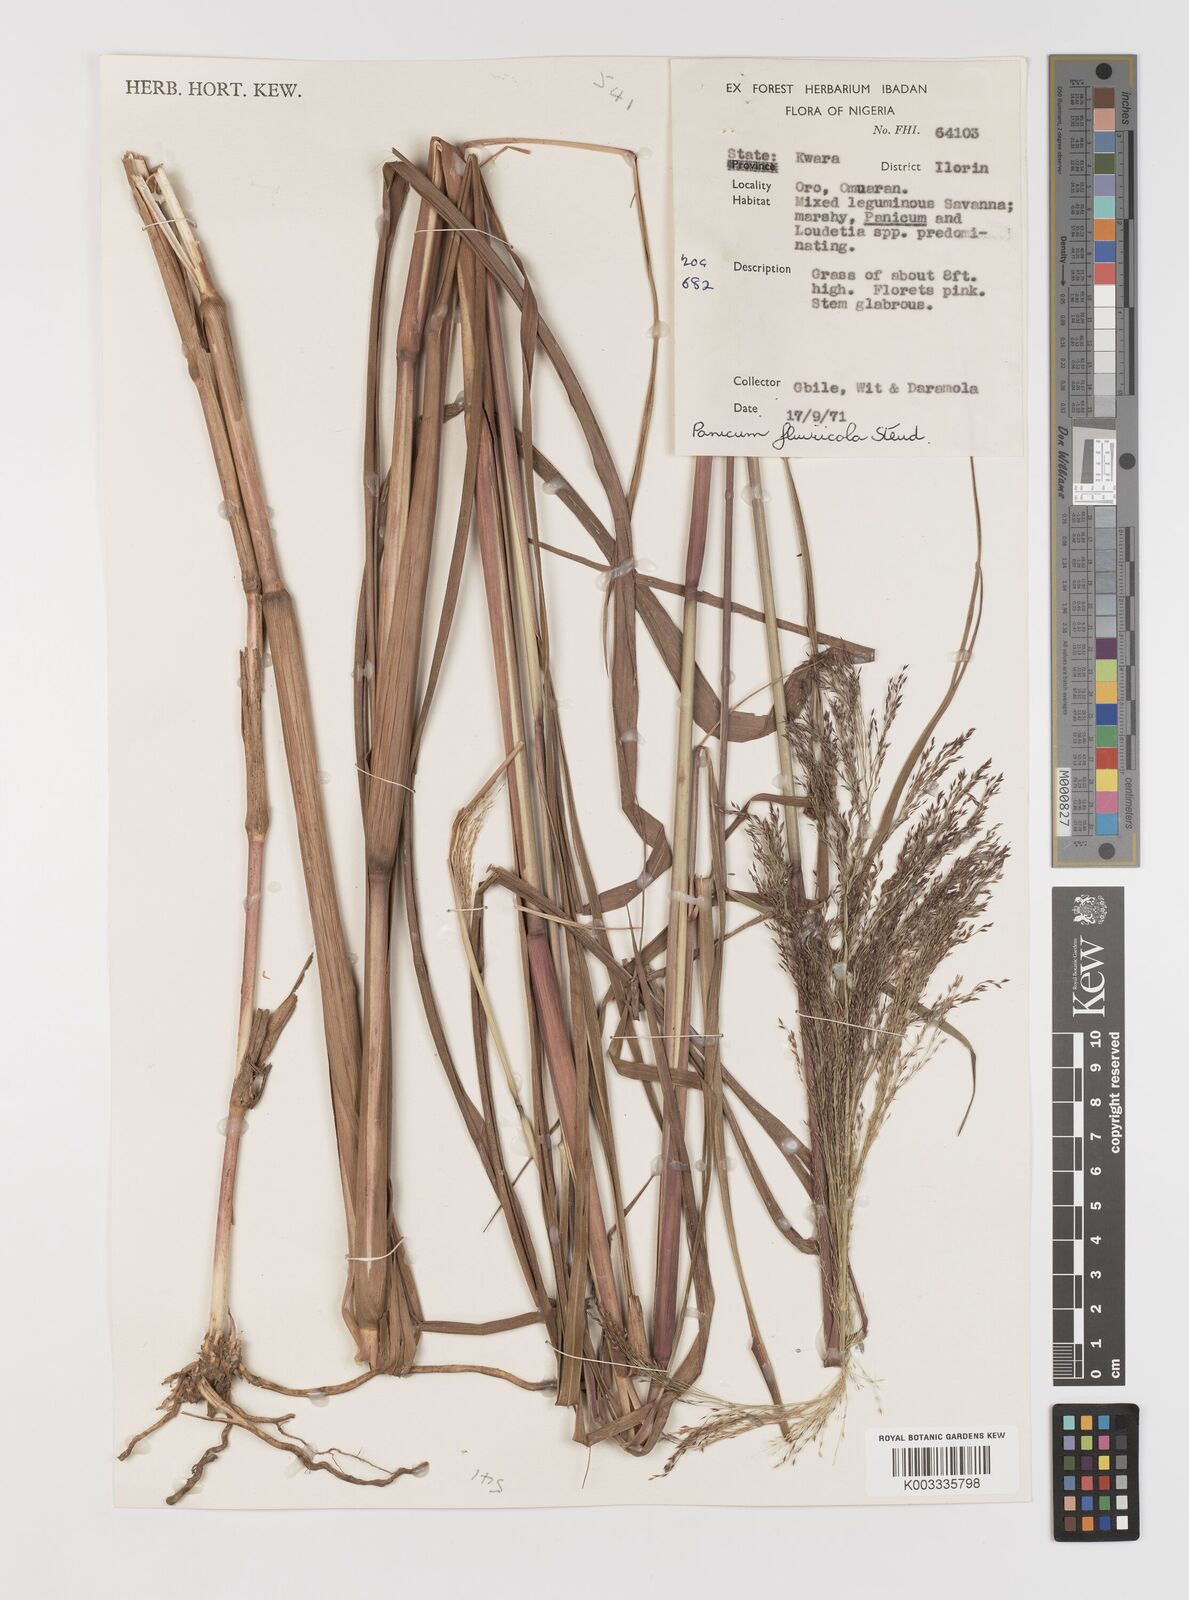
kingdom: Plantae
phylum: Tracheophyta
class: Liliopsida
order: Poales
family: Poaceae
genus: Panicum
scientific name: Panicum fluviicola
